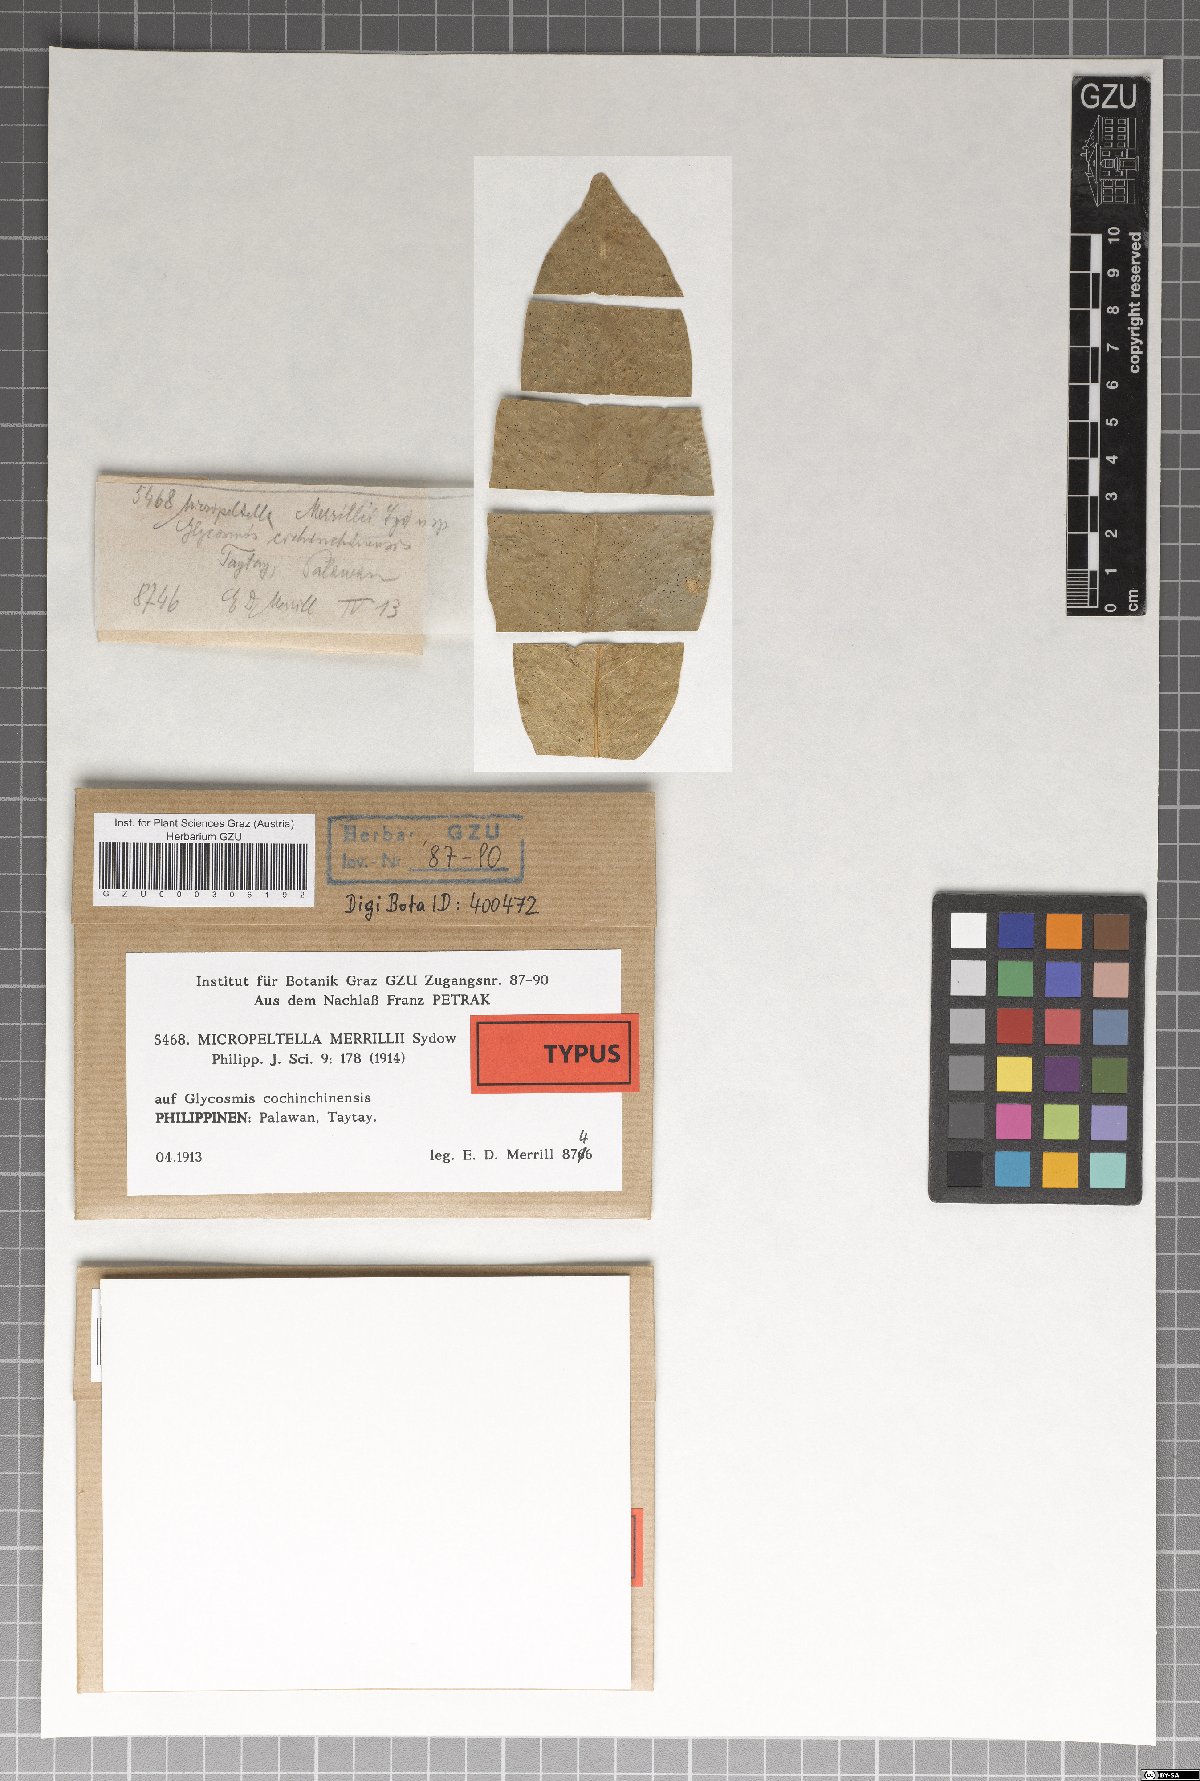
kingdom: Fungi
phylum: Ascomycota
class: Dothideomycetes
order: Microthyriales
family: Micropeltidaceae
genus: Micropeltella
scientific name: Micropeltella merrillii
